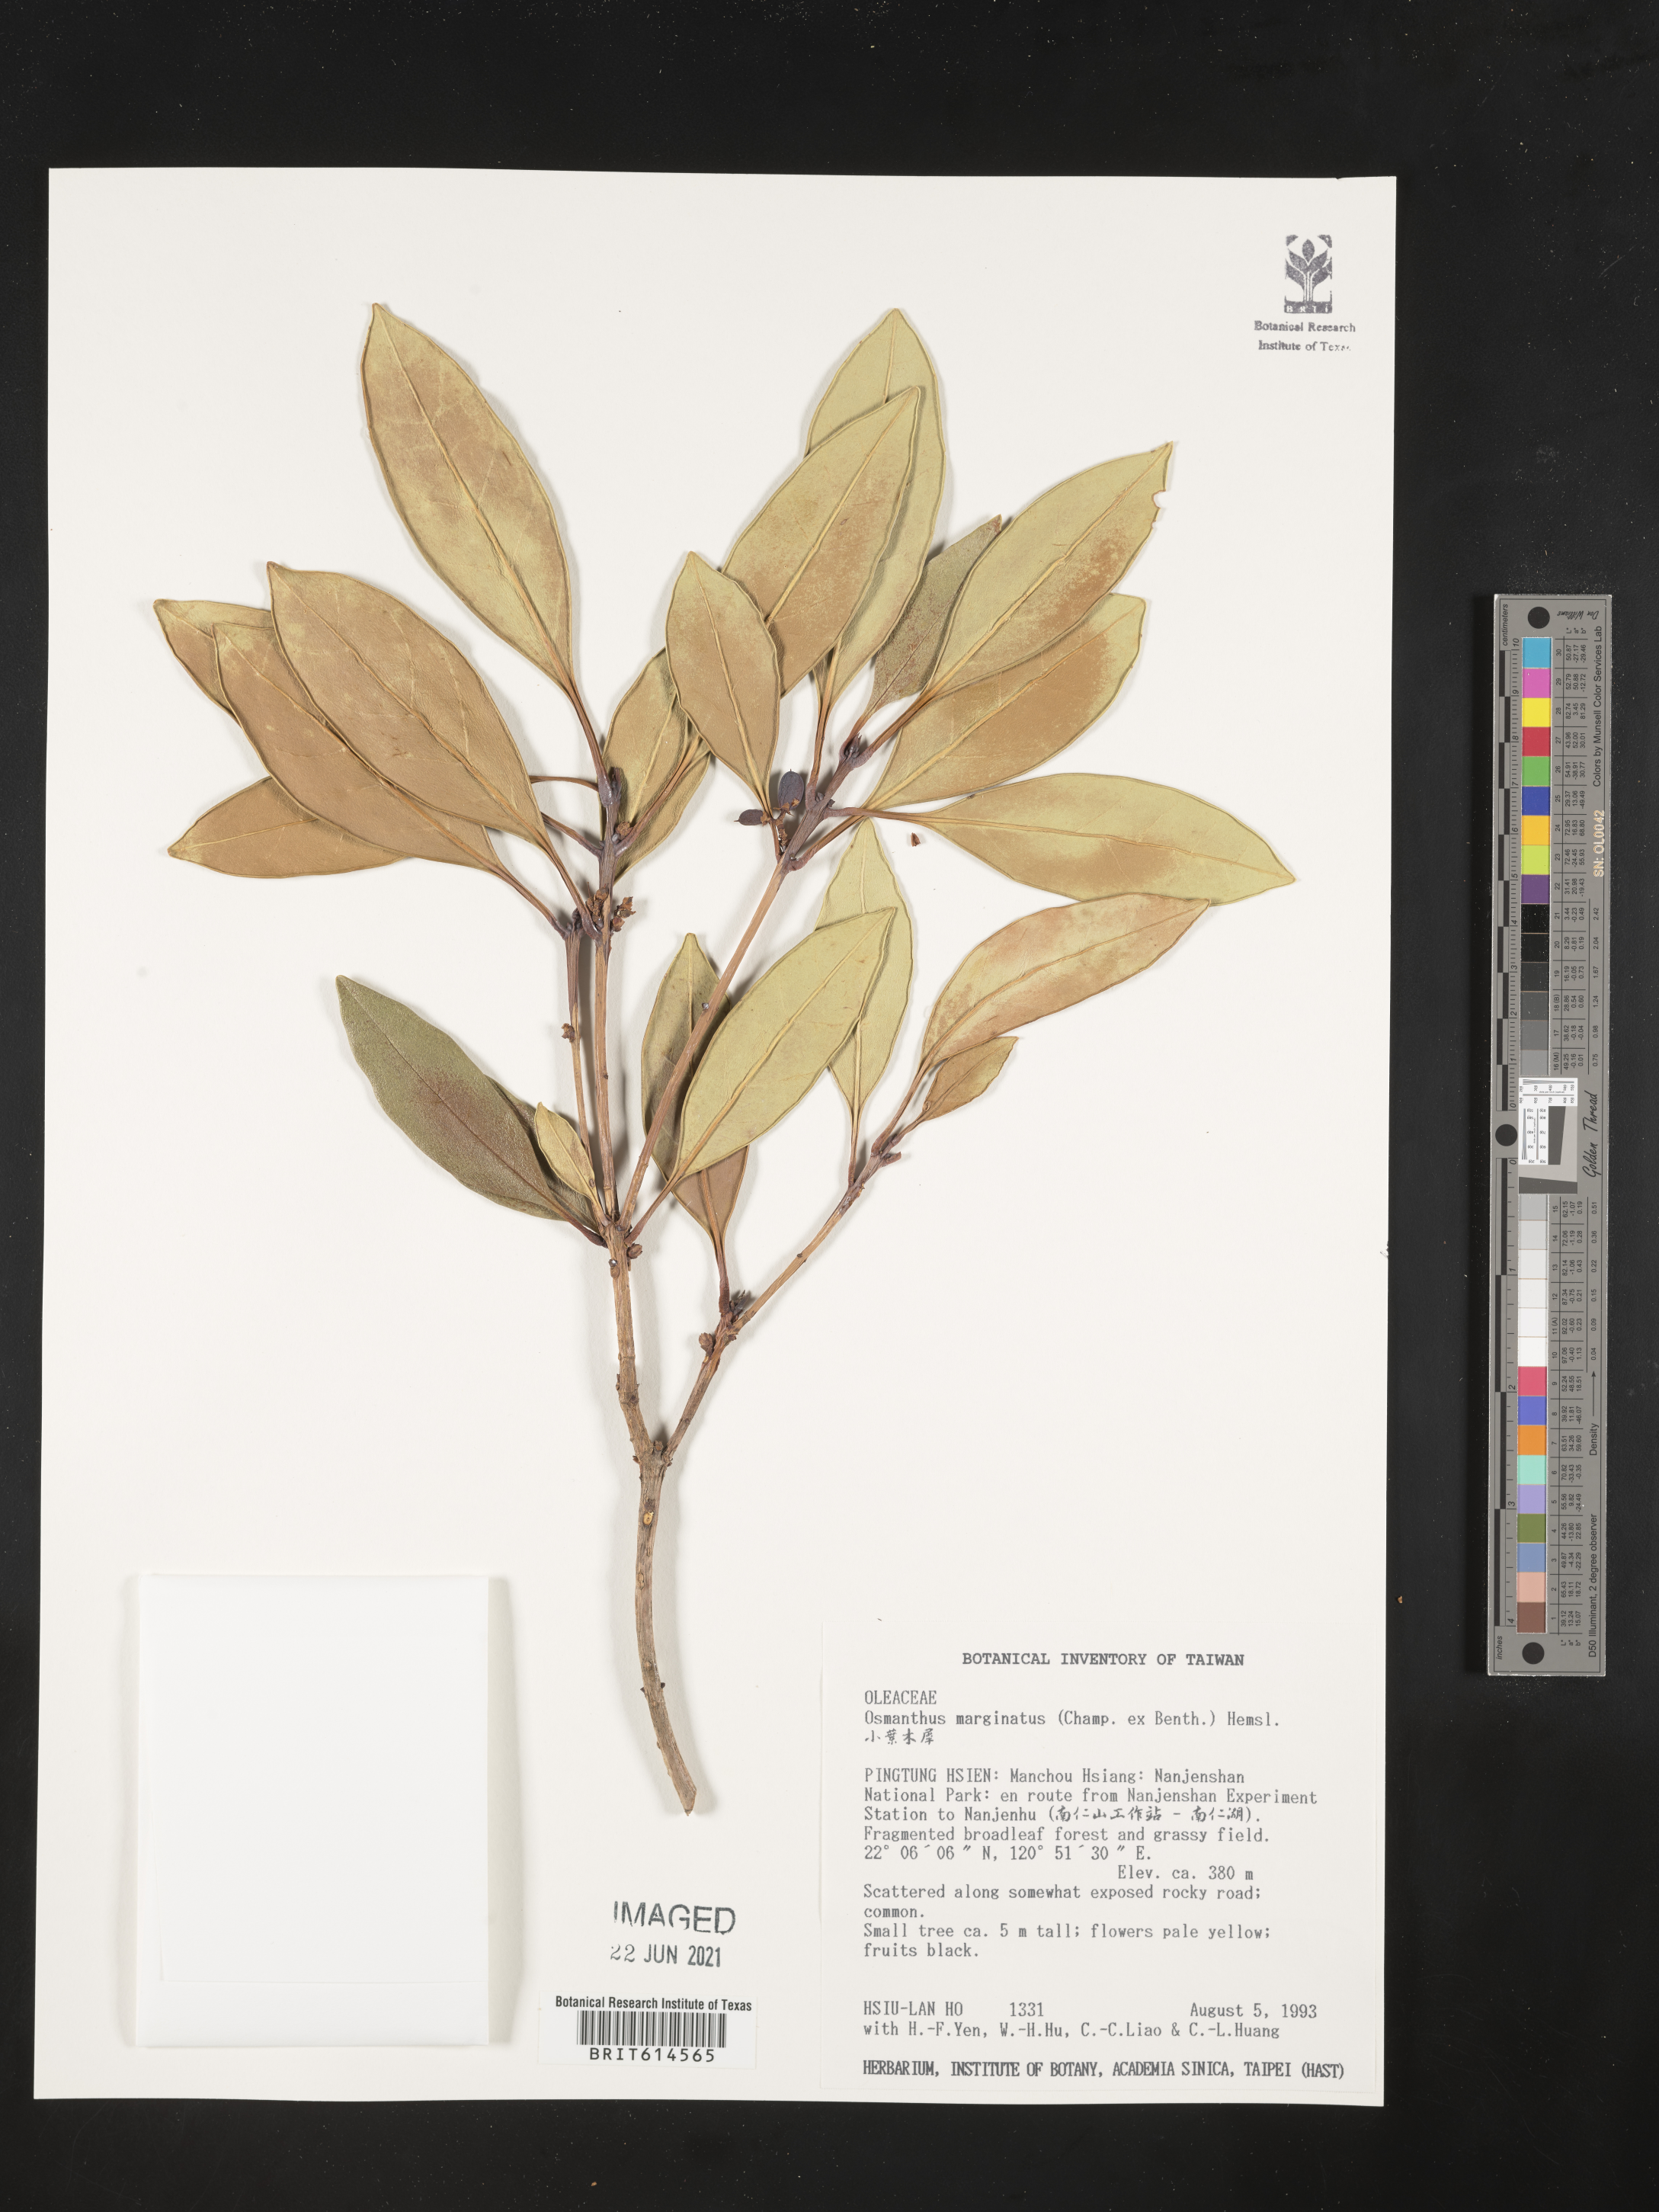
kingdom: Plantae
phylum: Tracheophyta
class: Magnoliopsida
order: Lamiales
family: Oleaceae
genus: Chengiodendron
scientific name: Chengiodendron marginatum
